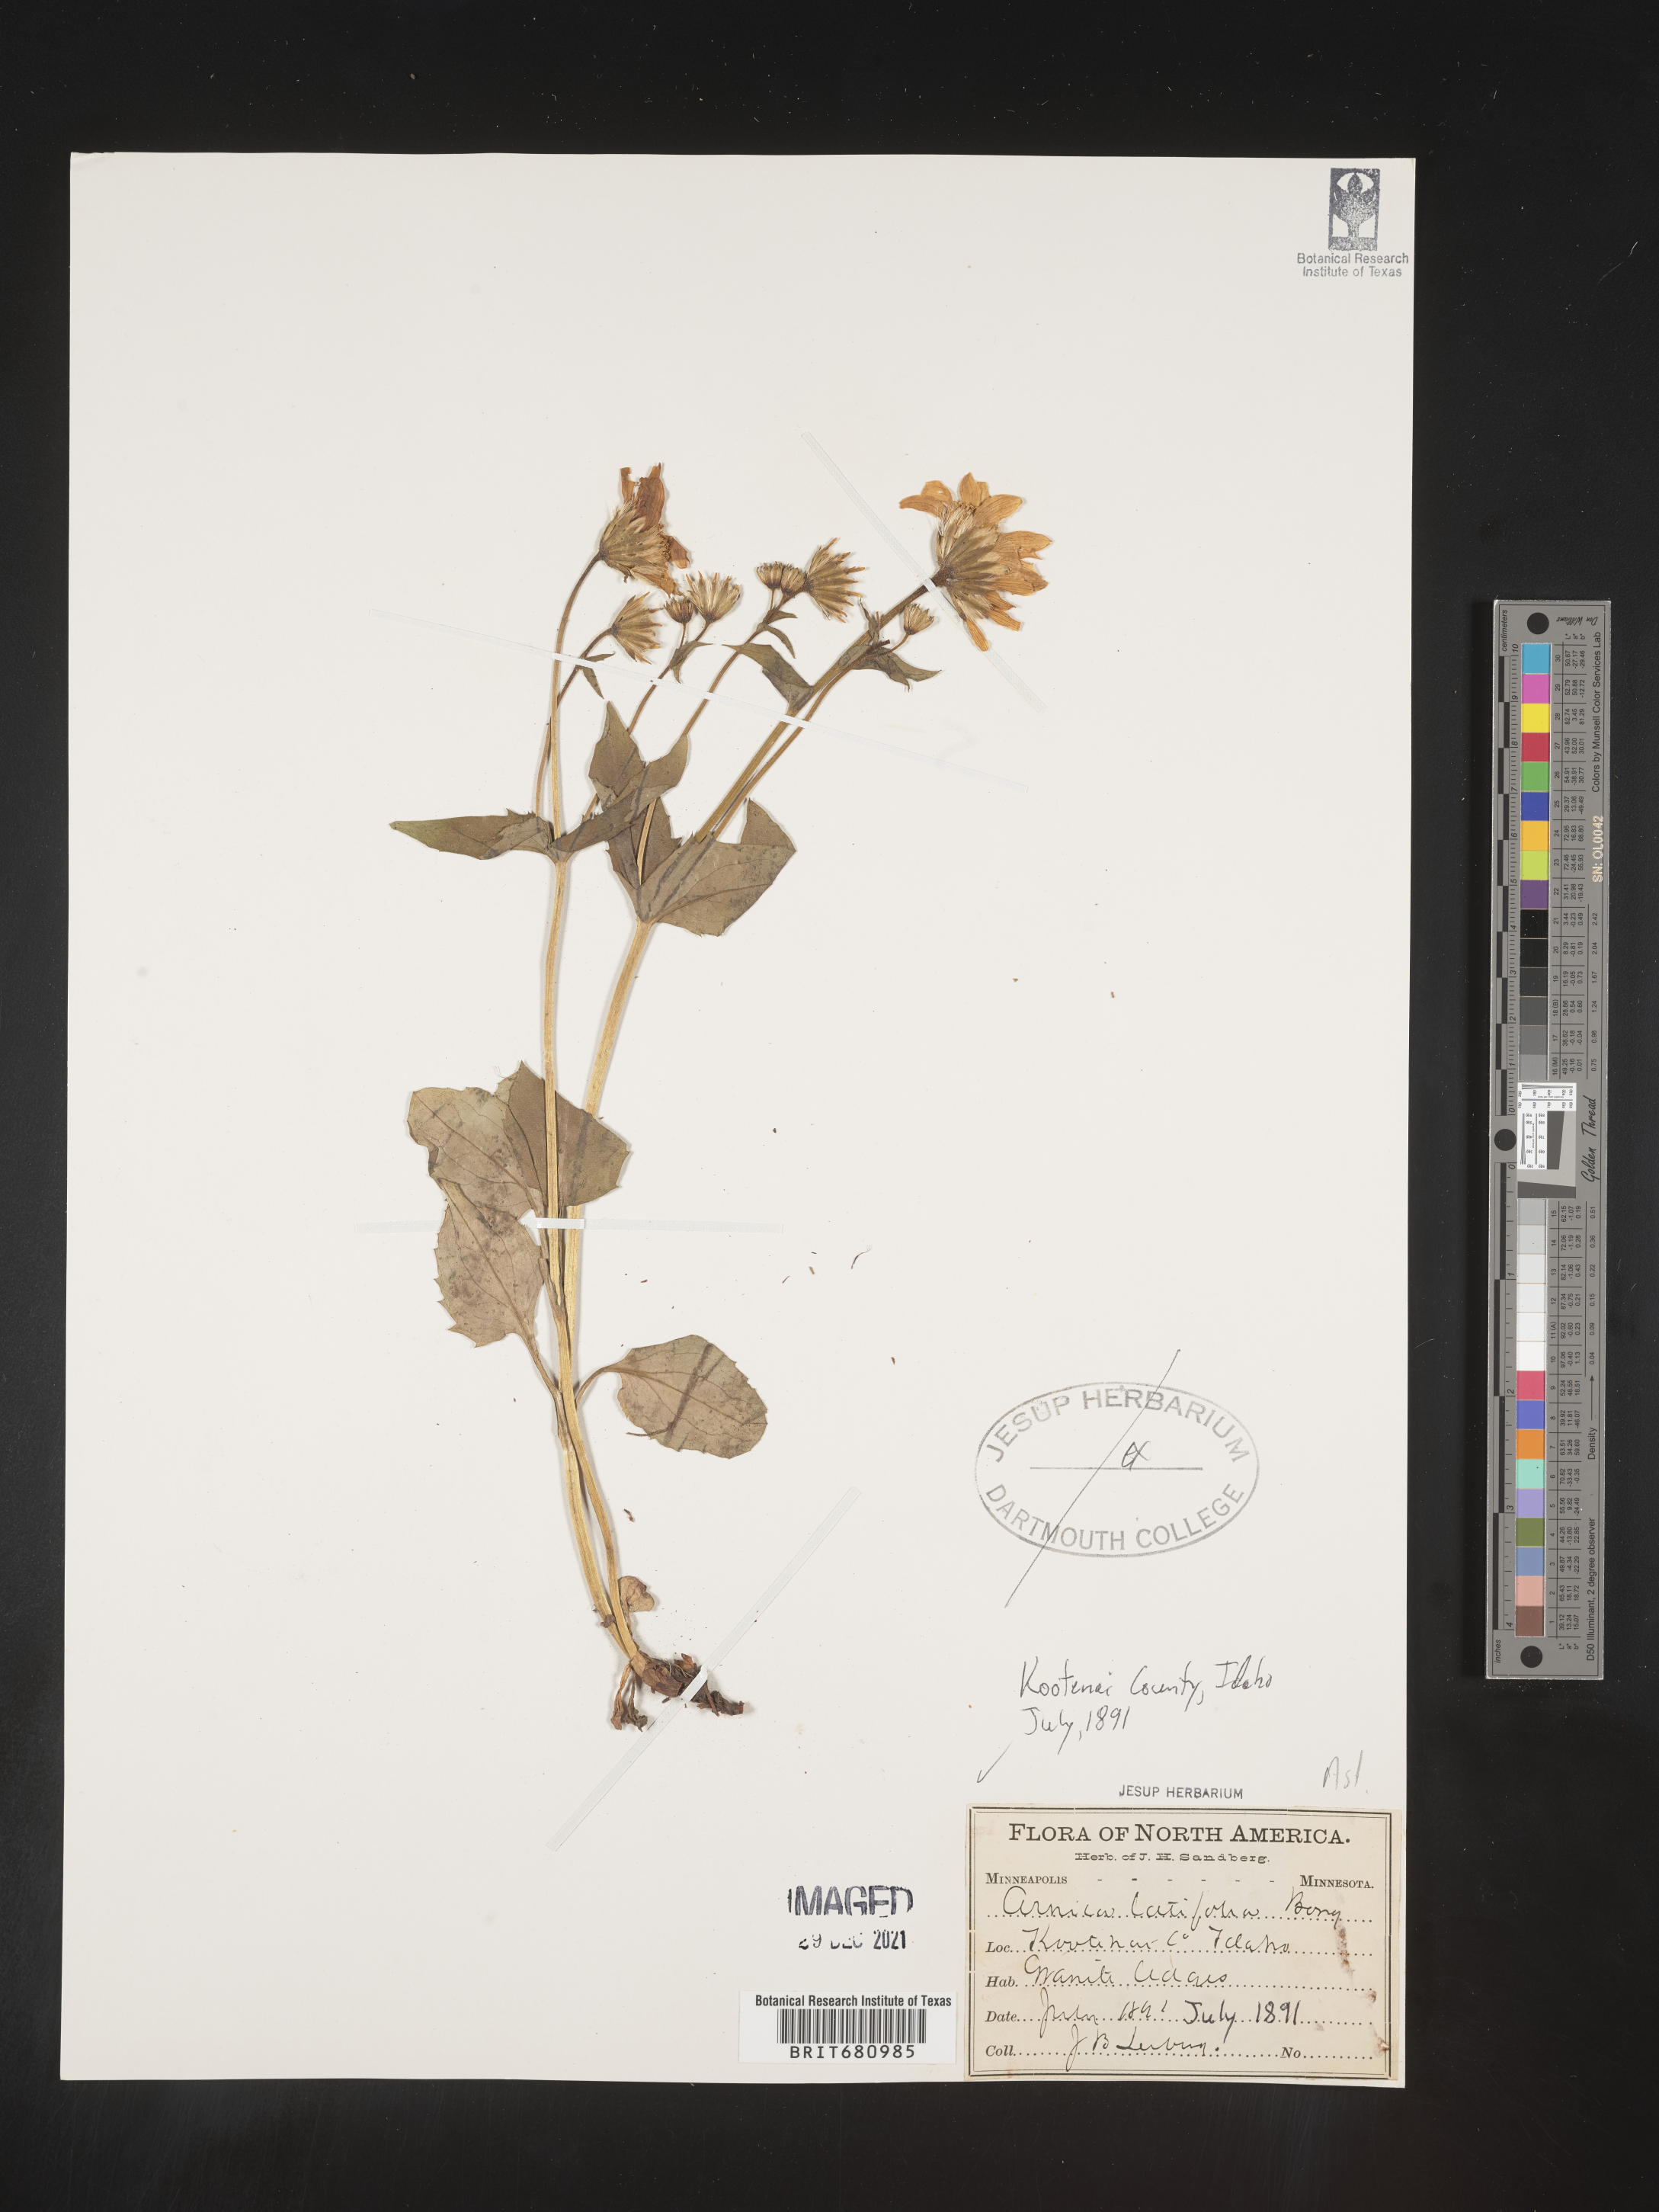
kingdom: Plantae
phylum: Tracheophyta
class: Magnoliopsida
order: Asterales
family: Asteraceae
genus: Arnica
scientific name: Arnica latifolia
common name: Arnica
